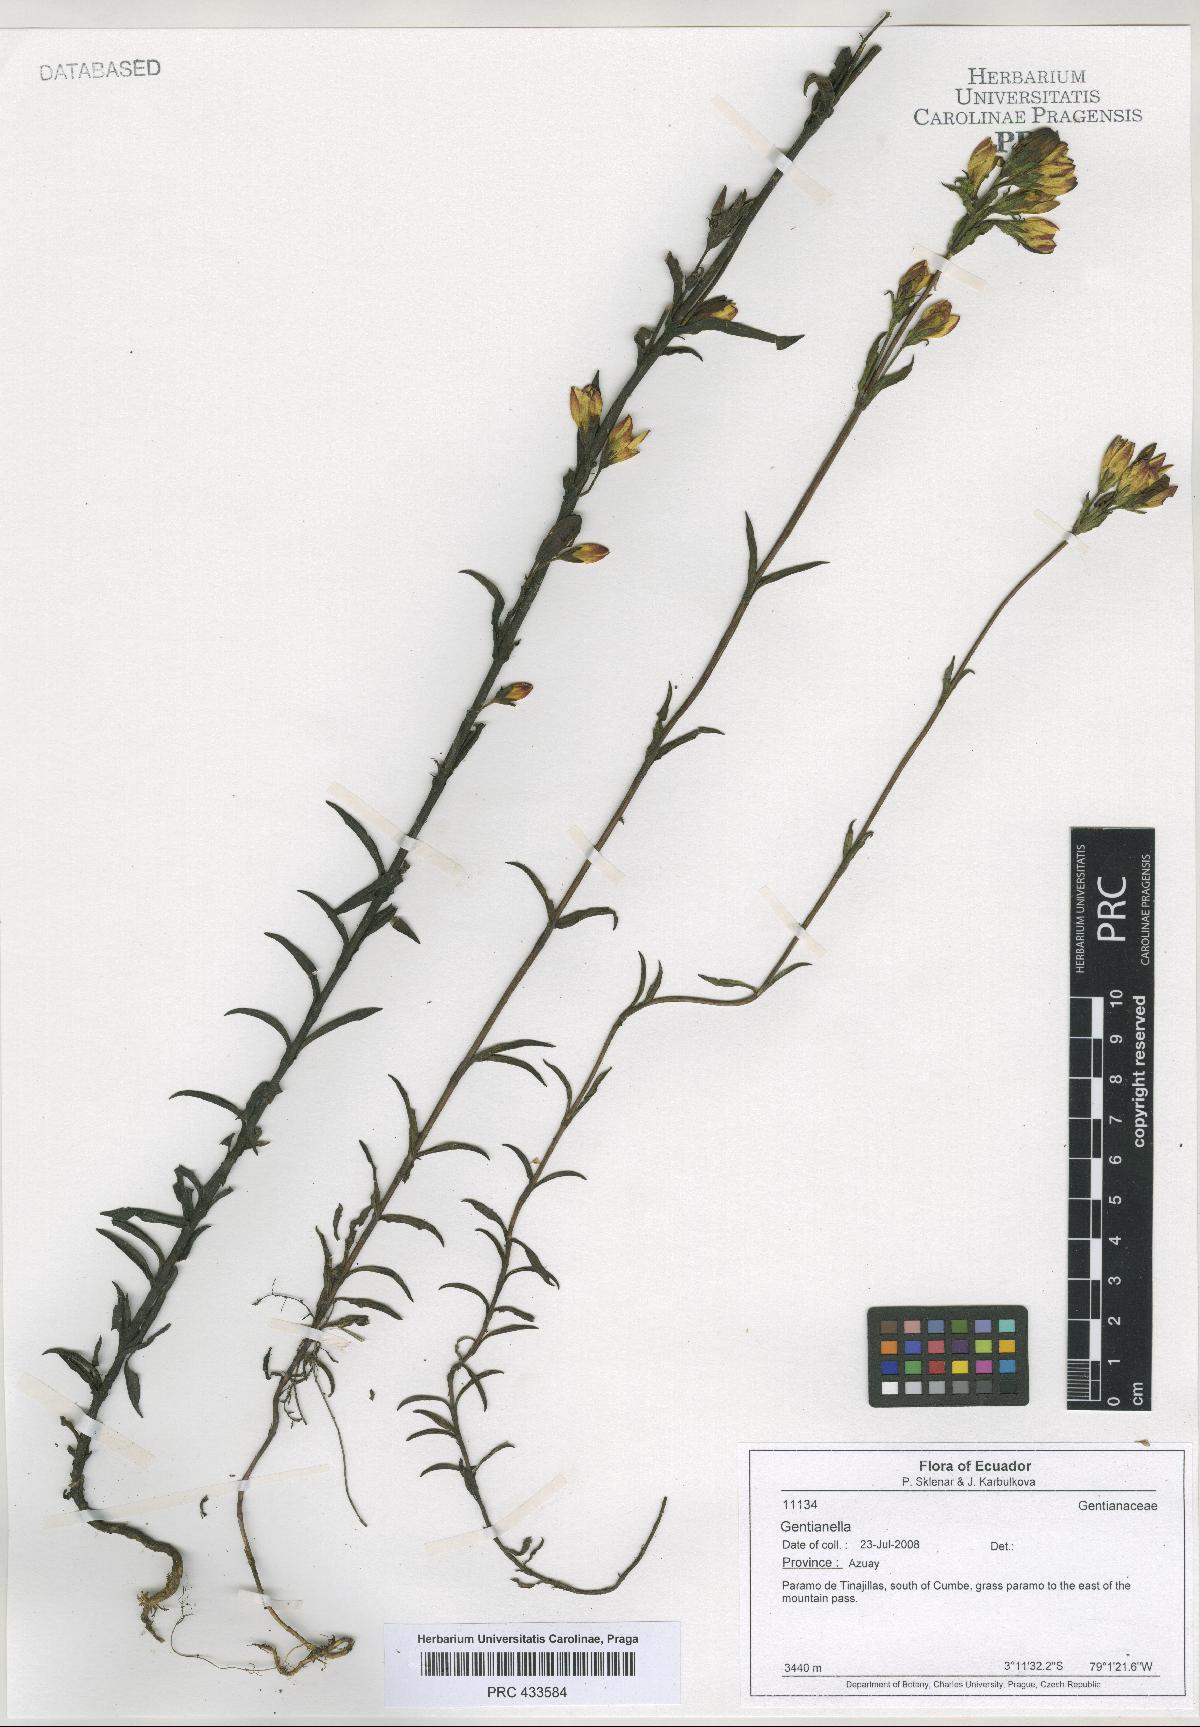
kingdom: Plantae
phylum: Tracheophyta
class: Magnoliopsida
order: Gentianales
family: Gentianaceae
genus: Gentianella
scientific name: Gentianella
